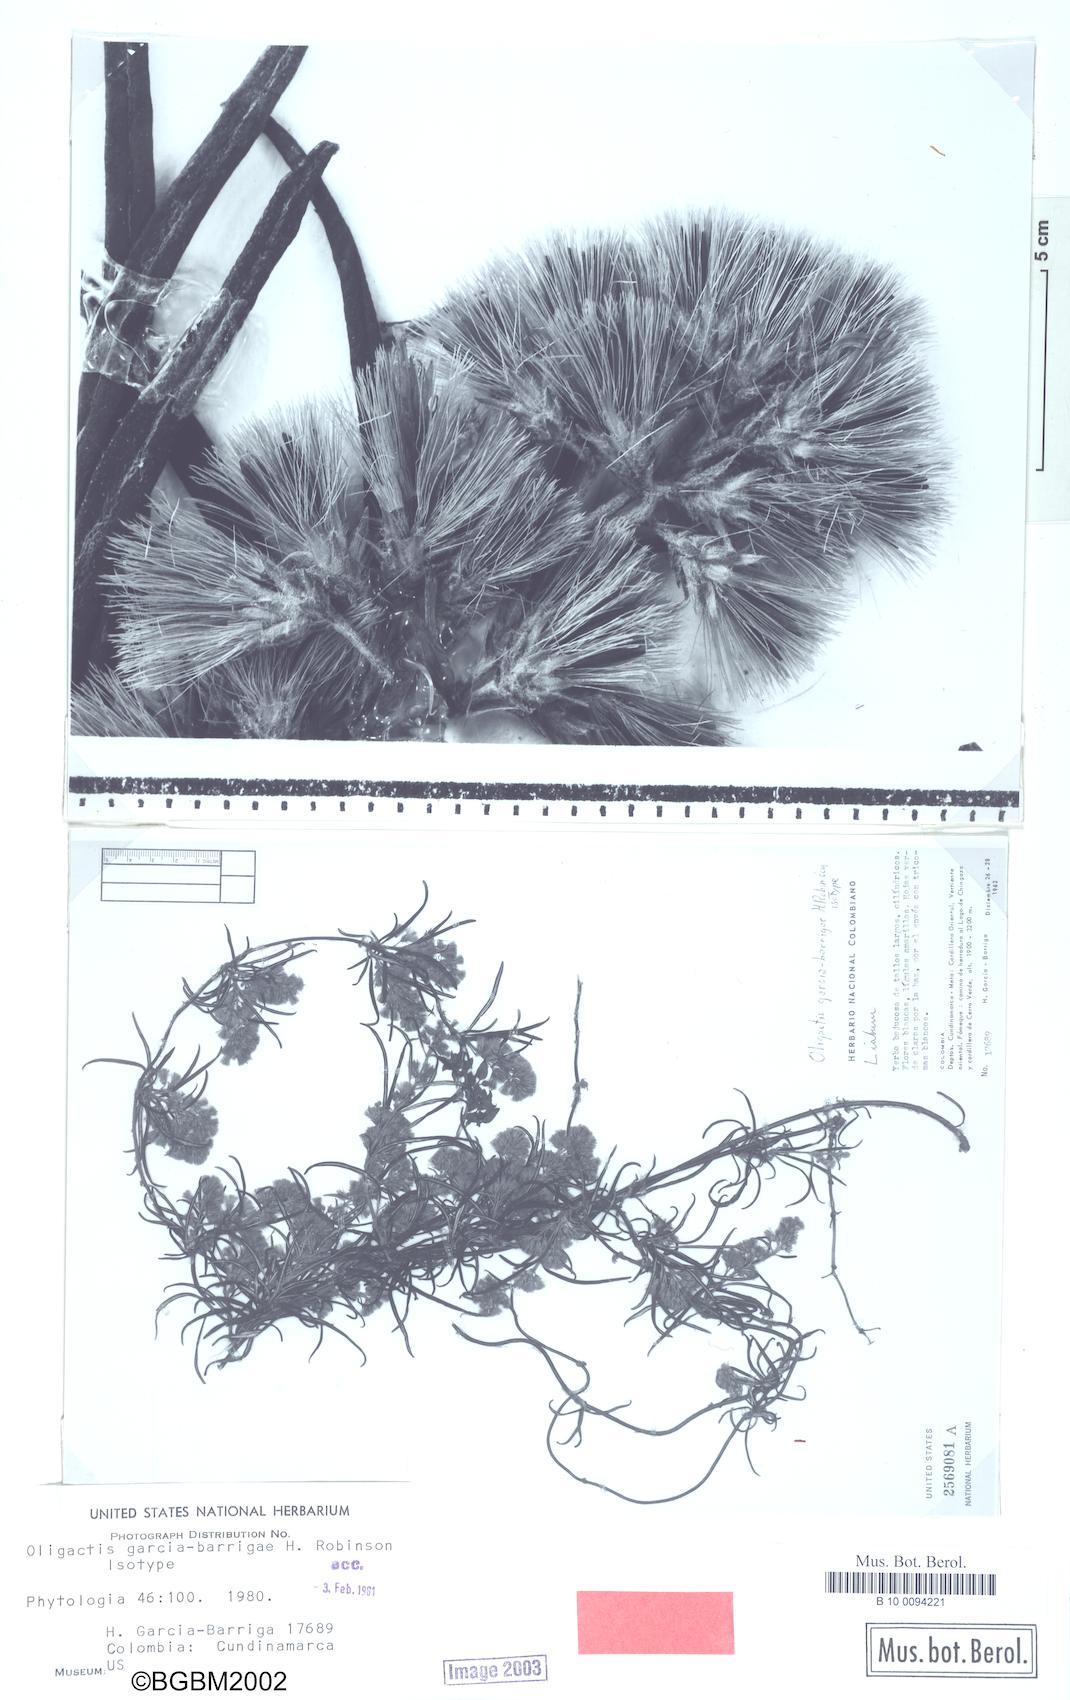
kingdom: Plantae
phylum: Tracheophyta
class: Magnoliopsida
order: Asterales
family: Asteraceae
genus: Oligactis
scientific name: Oligactis garcia-barrigae
